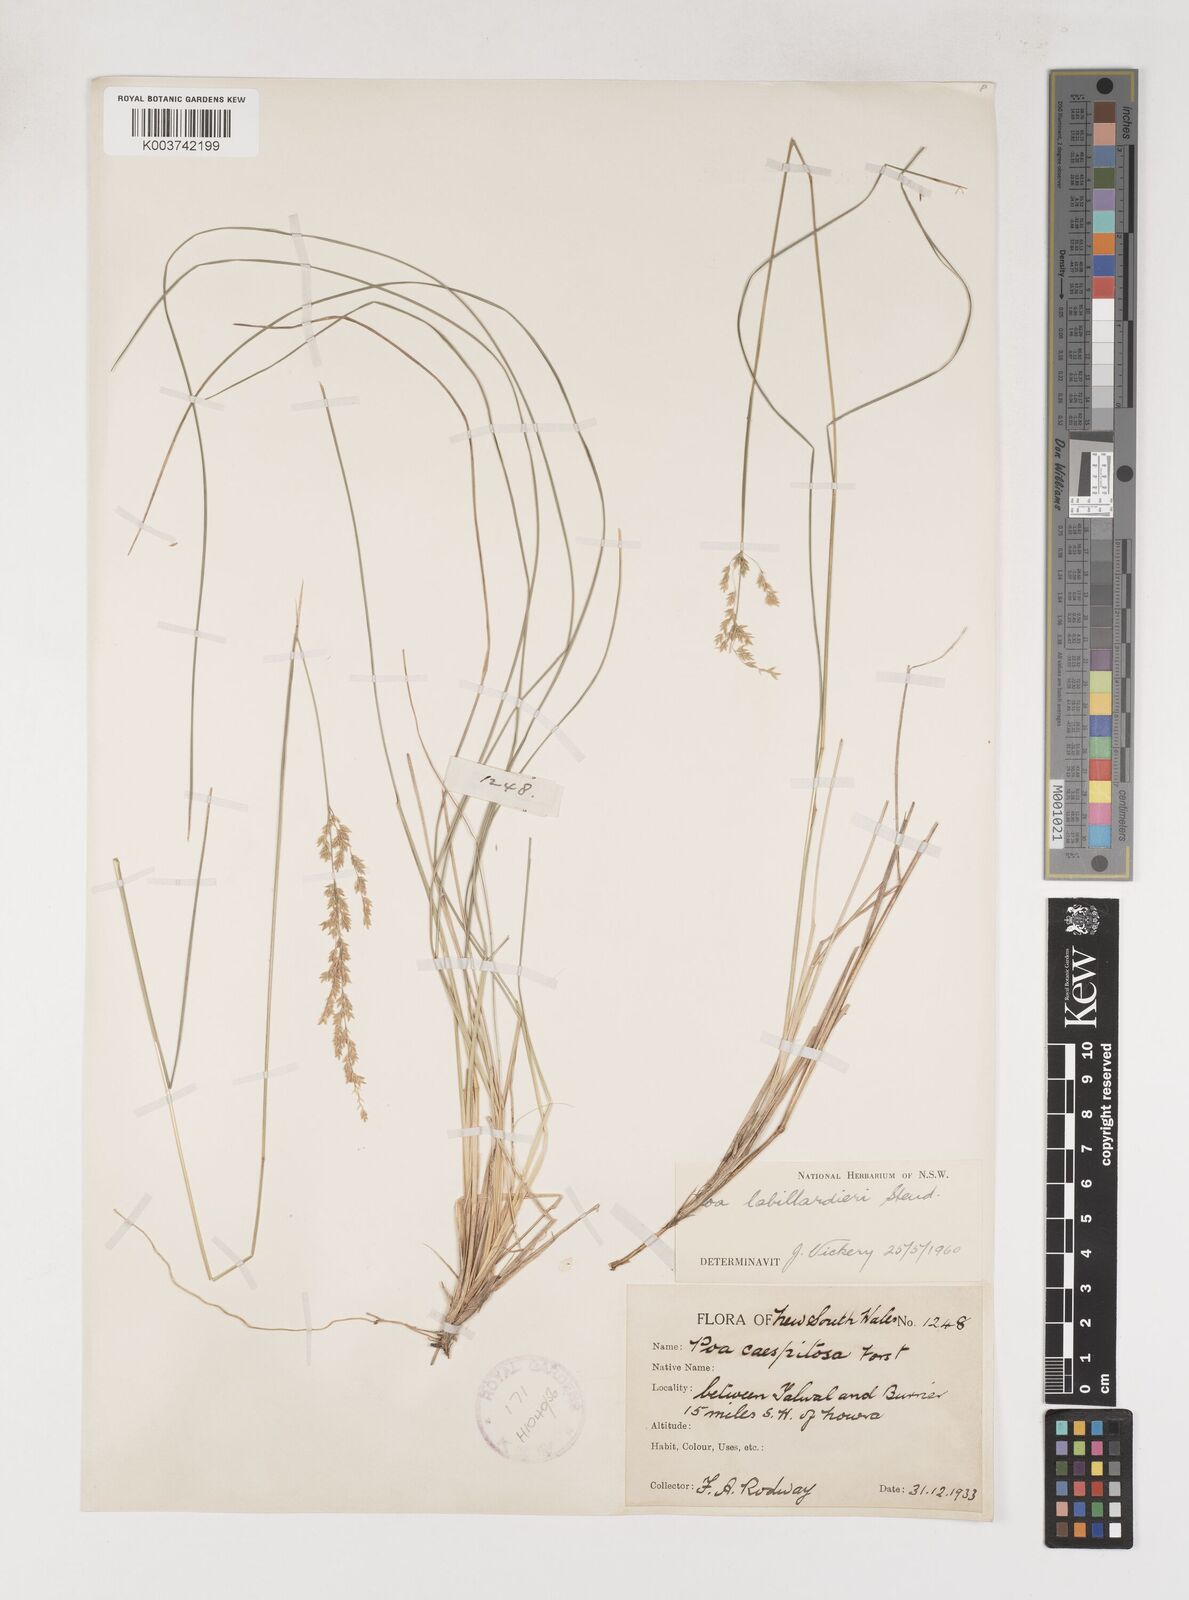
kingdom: Plantae
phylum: Tracheophyta
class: Liliopsida
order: Poales
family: Poaceae
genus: Poa
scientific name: Poa labillardierei
